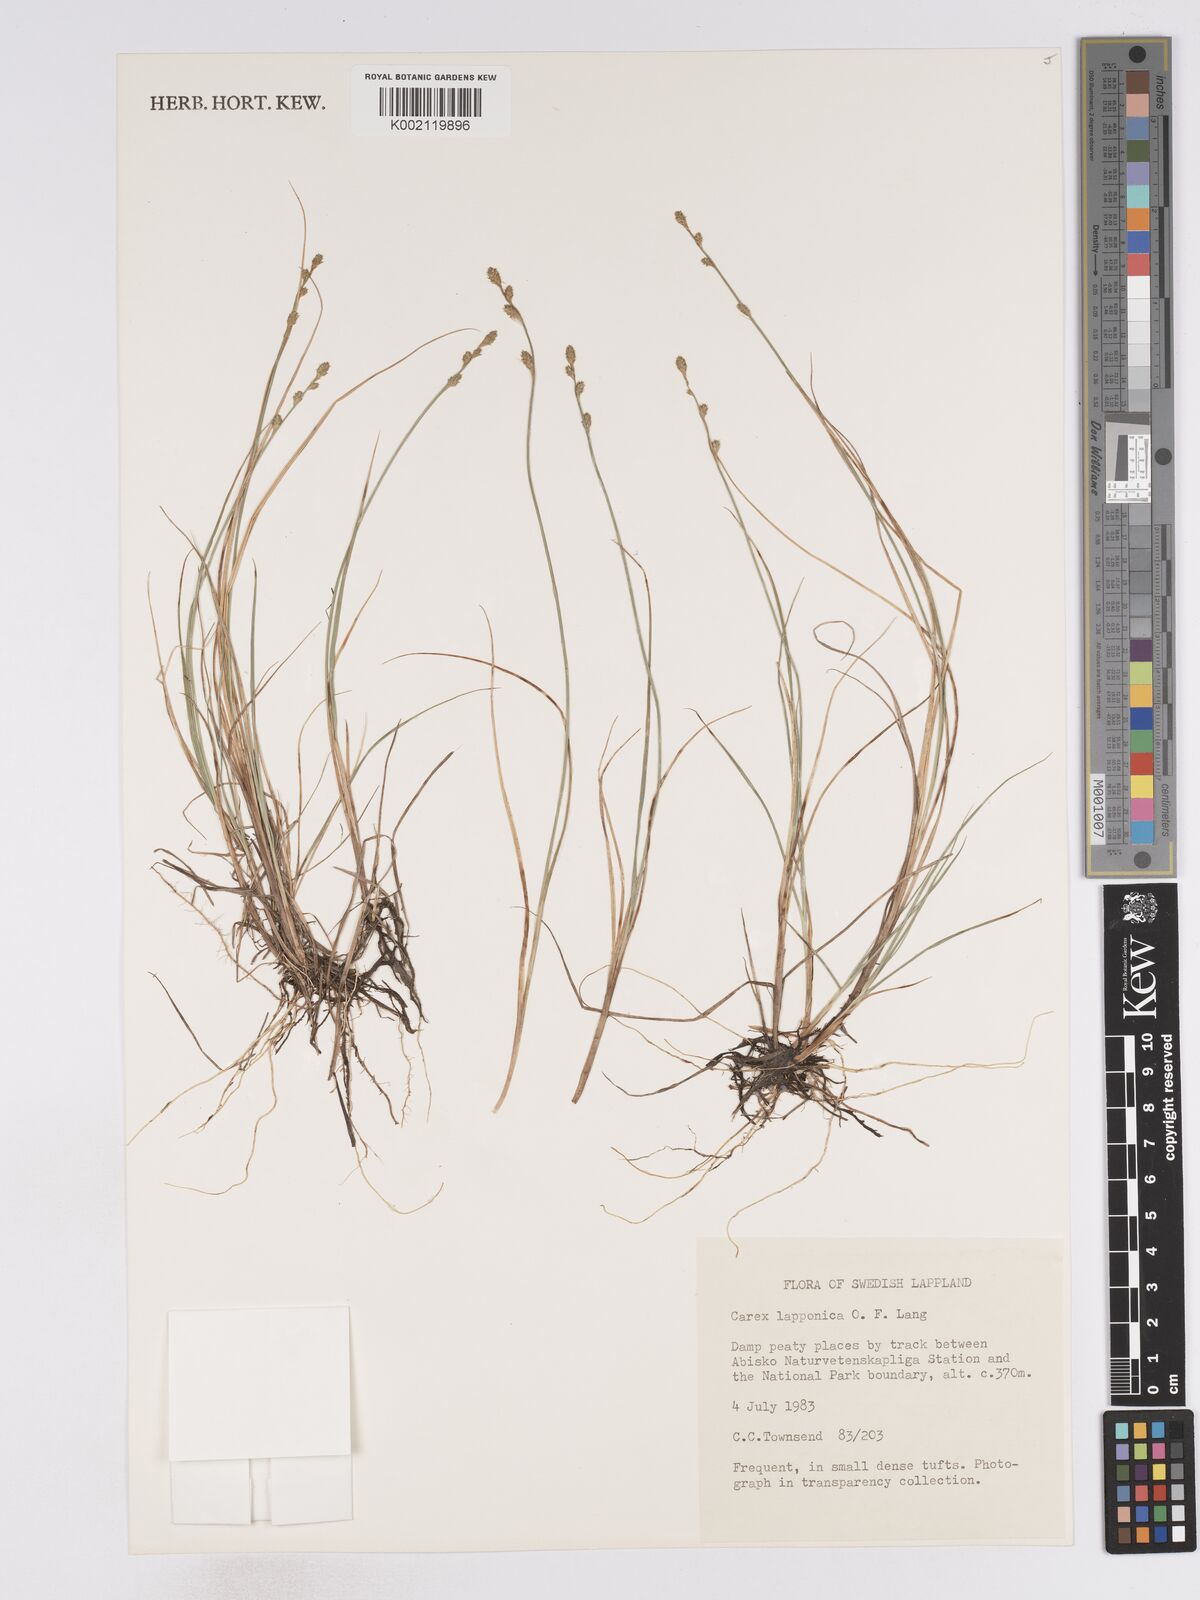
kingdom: Plantae
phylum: Tracheophyta
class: Liliopsida
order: Poales
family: Cyperaceae
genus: Carex
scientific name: Carex lapponica
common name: Lapland sedge
